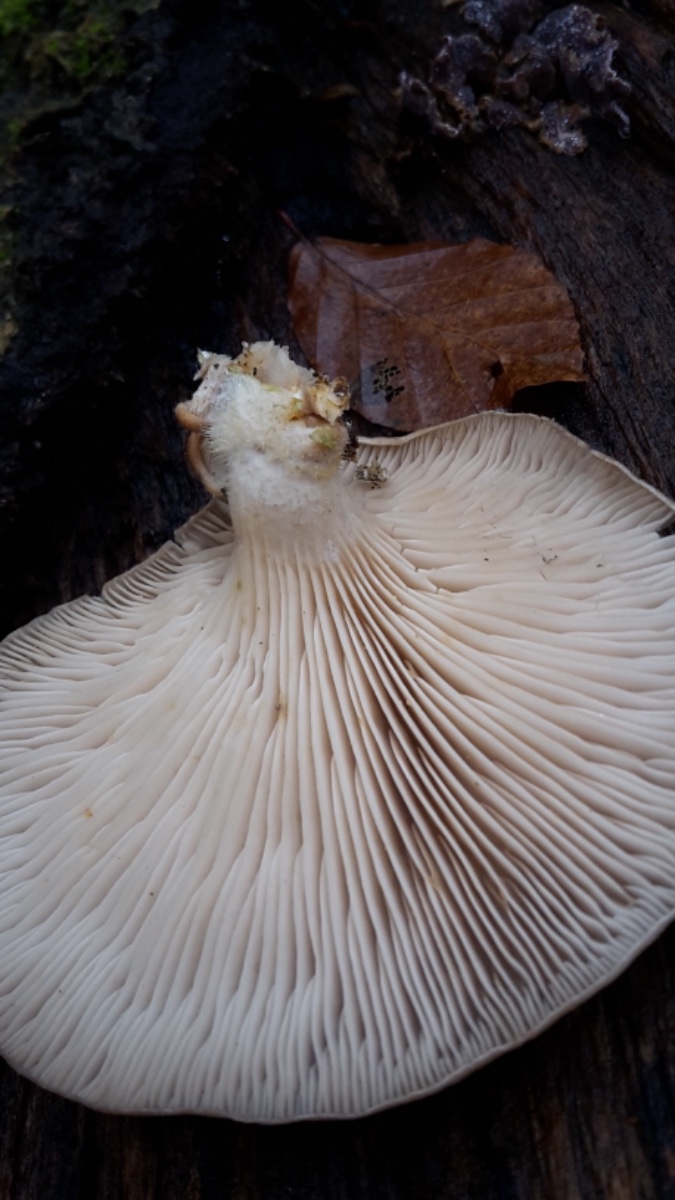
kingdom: Fungi
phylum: Basidiomycota
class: Agaricomycetes
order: Agaricales
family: Pleurotaceae
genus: Pleurotus
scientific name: Pleurotus ostreatus
